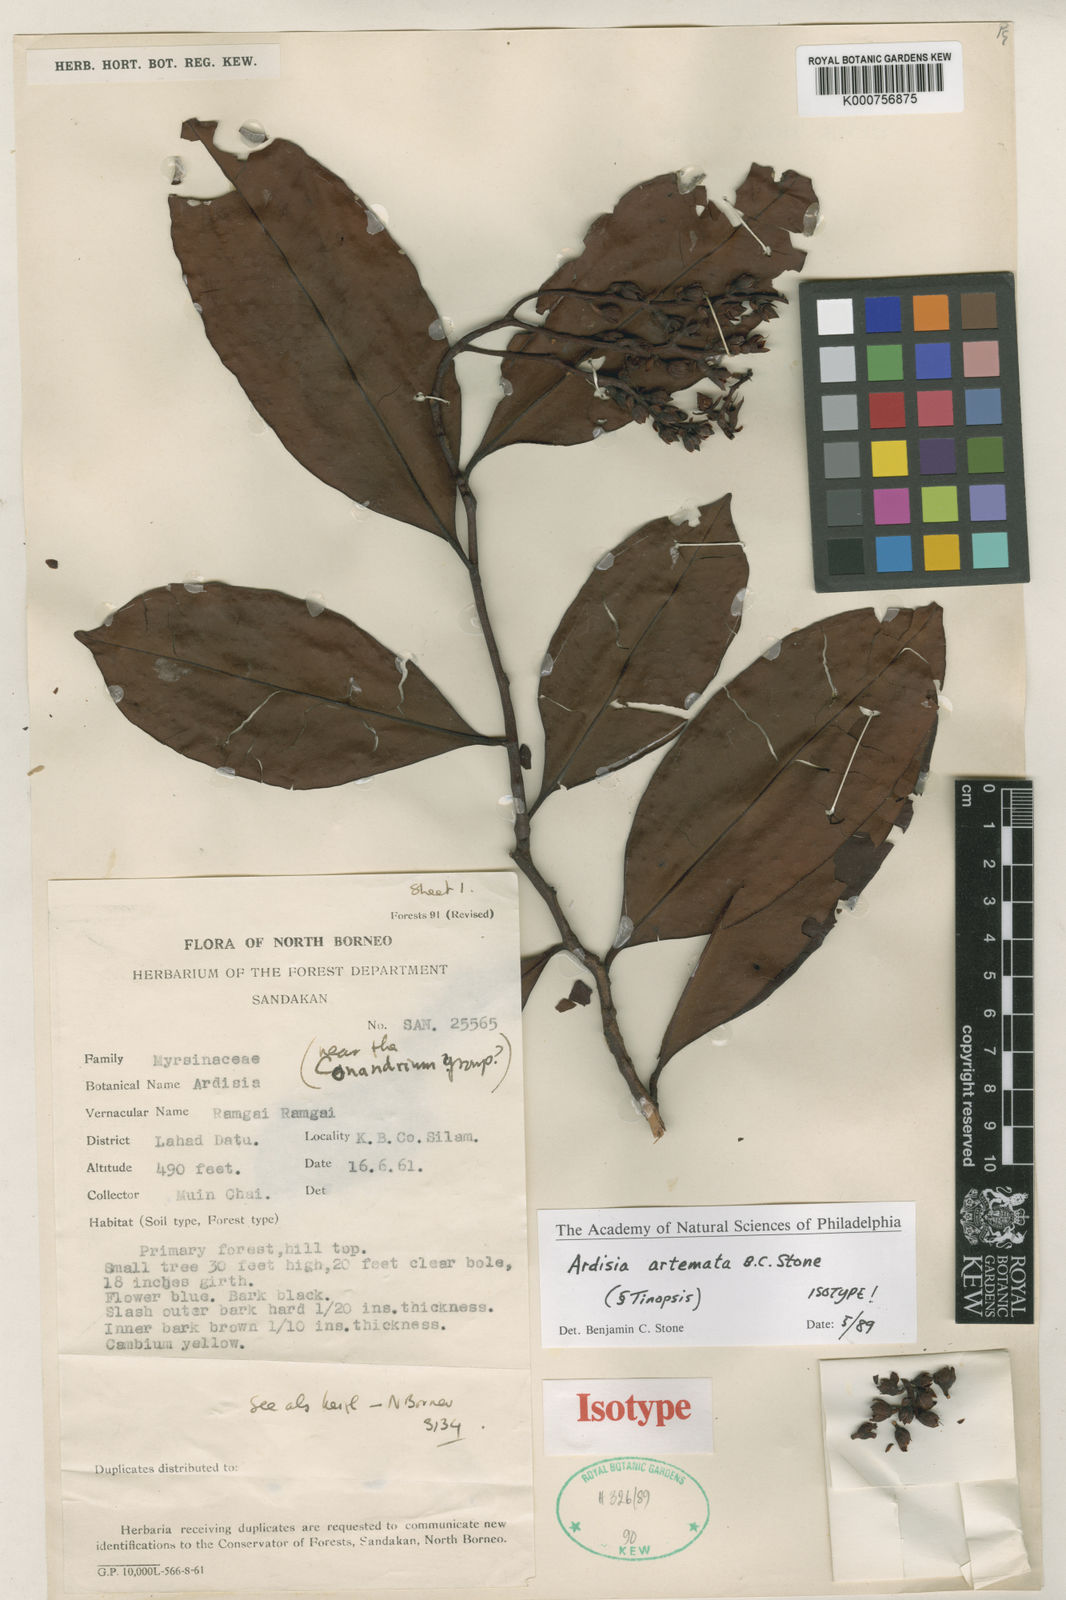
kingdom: Plantae
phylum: Tracheophyta
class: Magnoliopsida
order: Ericales
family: Primulaceae
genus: Ardisia
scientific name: Ardisia
